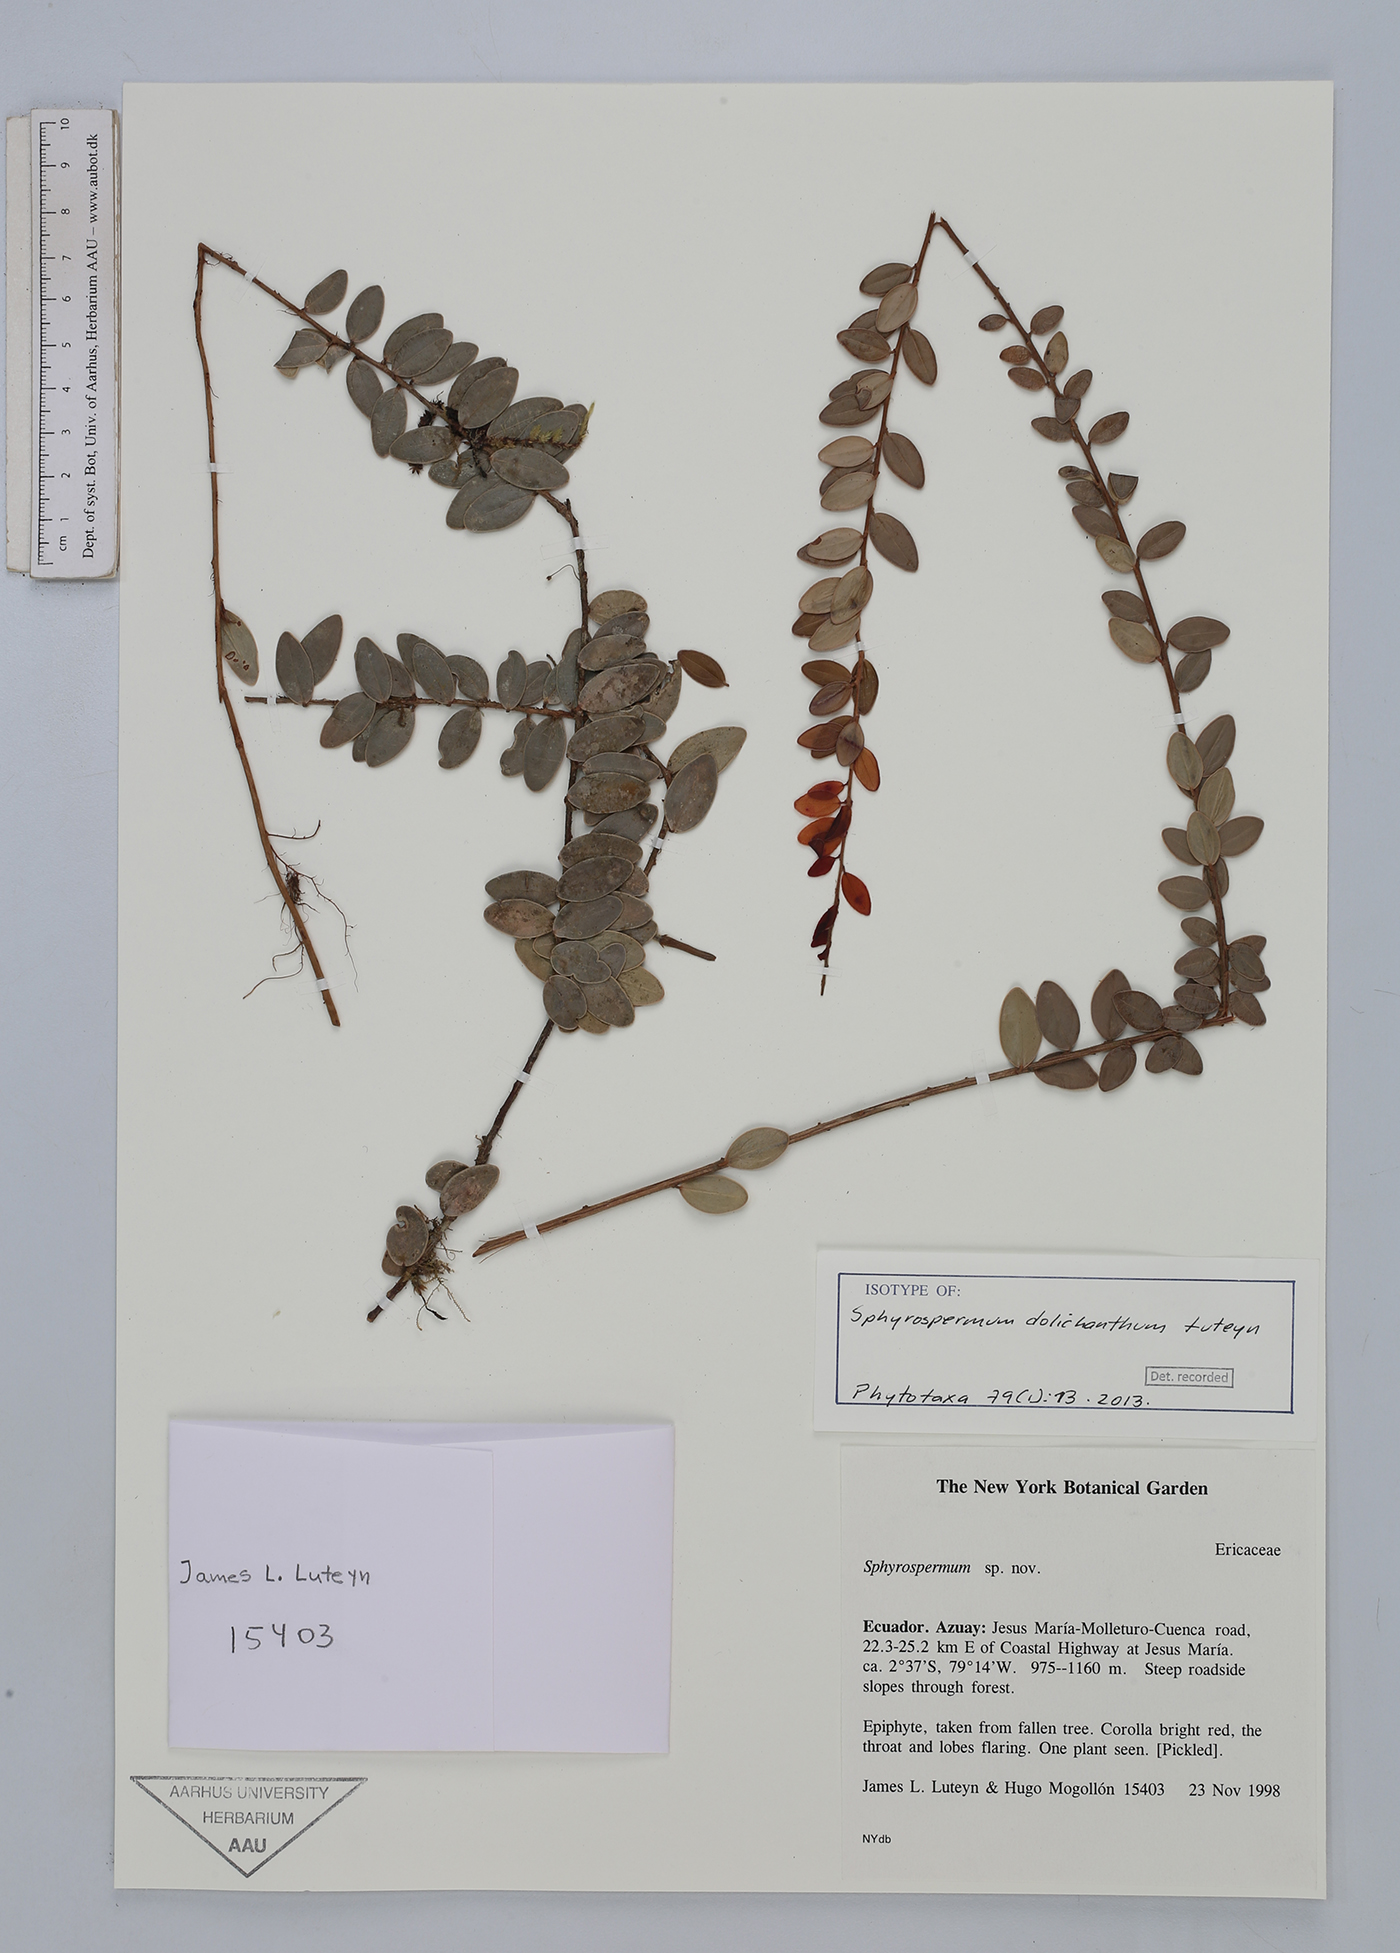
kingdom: Plantae
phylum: Tracheophyta
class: Magnoliopsida
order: Ericales
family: Ericaceae
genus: Sphyrospermum
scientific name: Sphyrospermum dolichanthum
